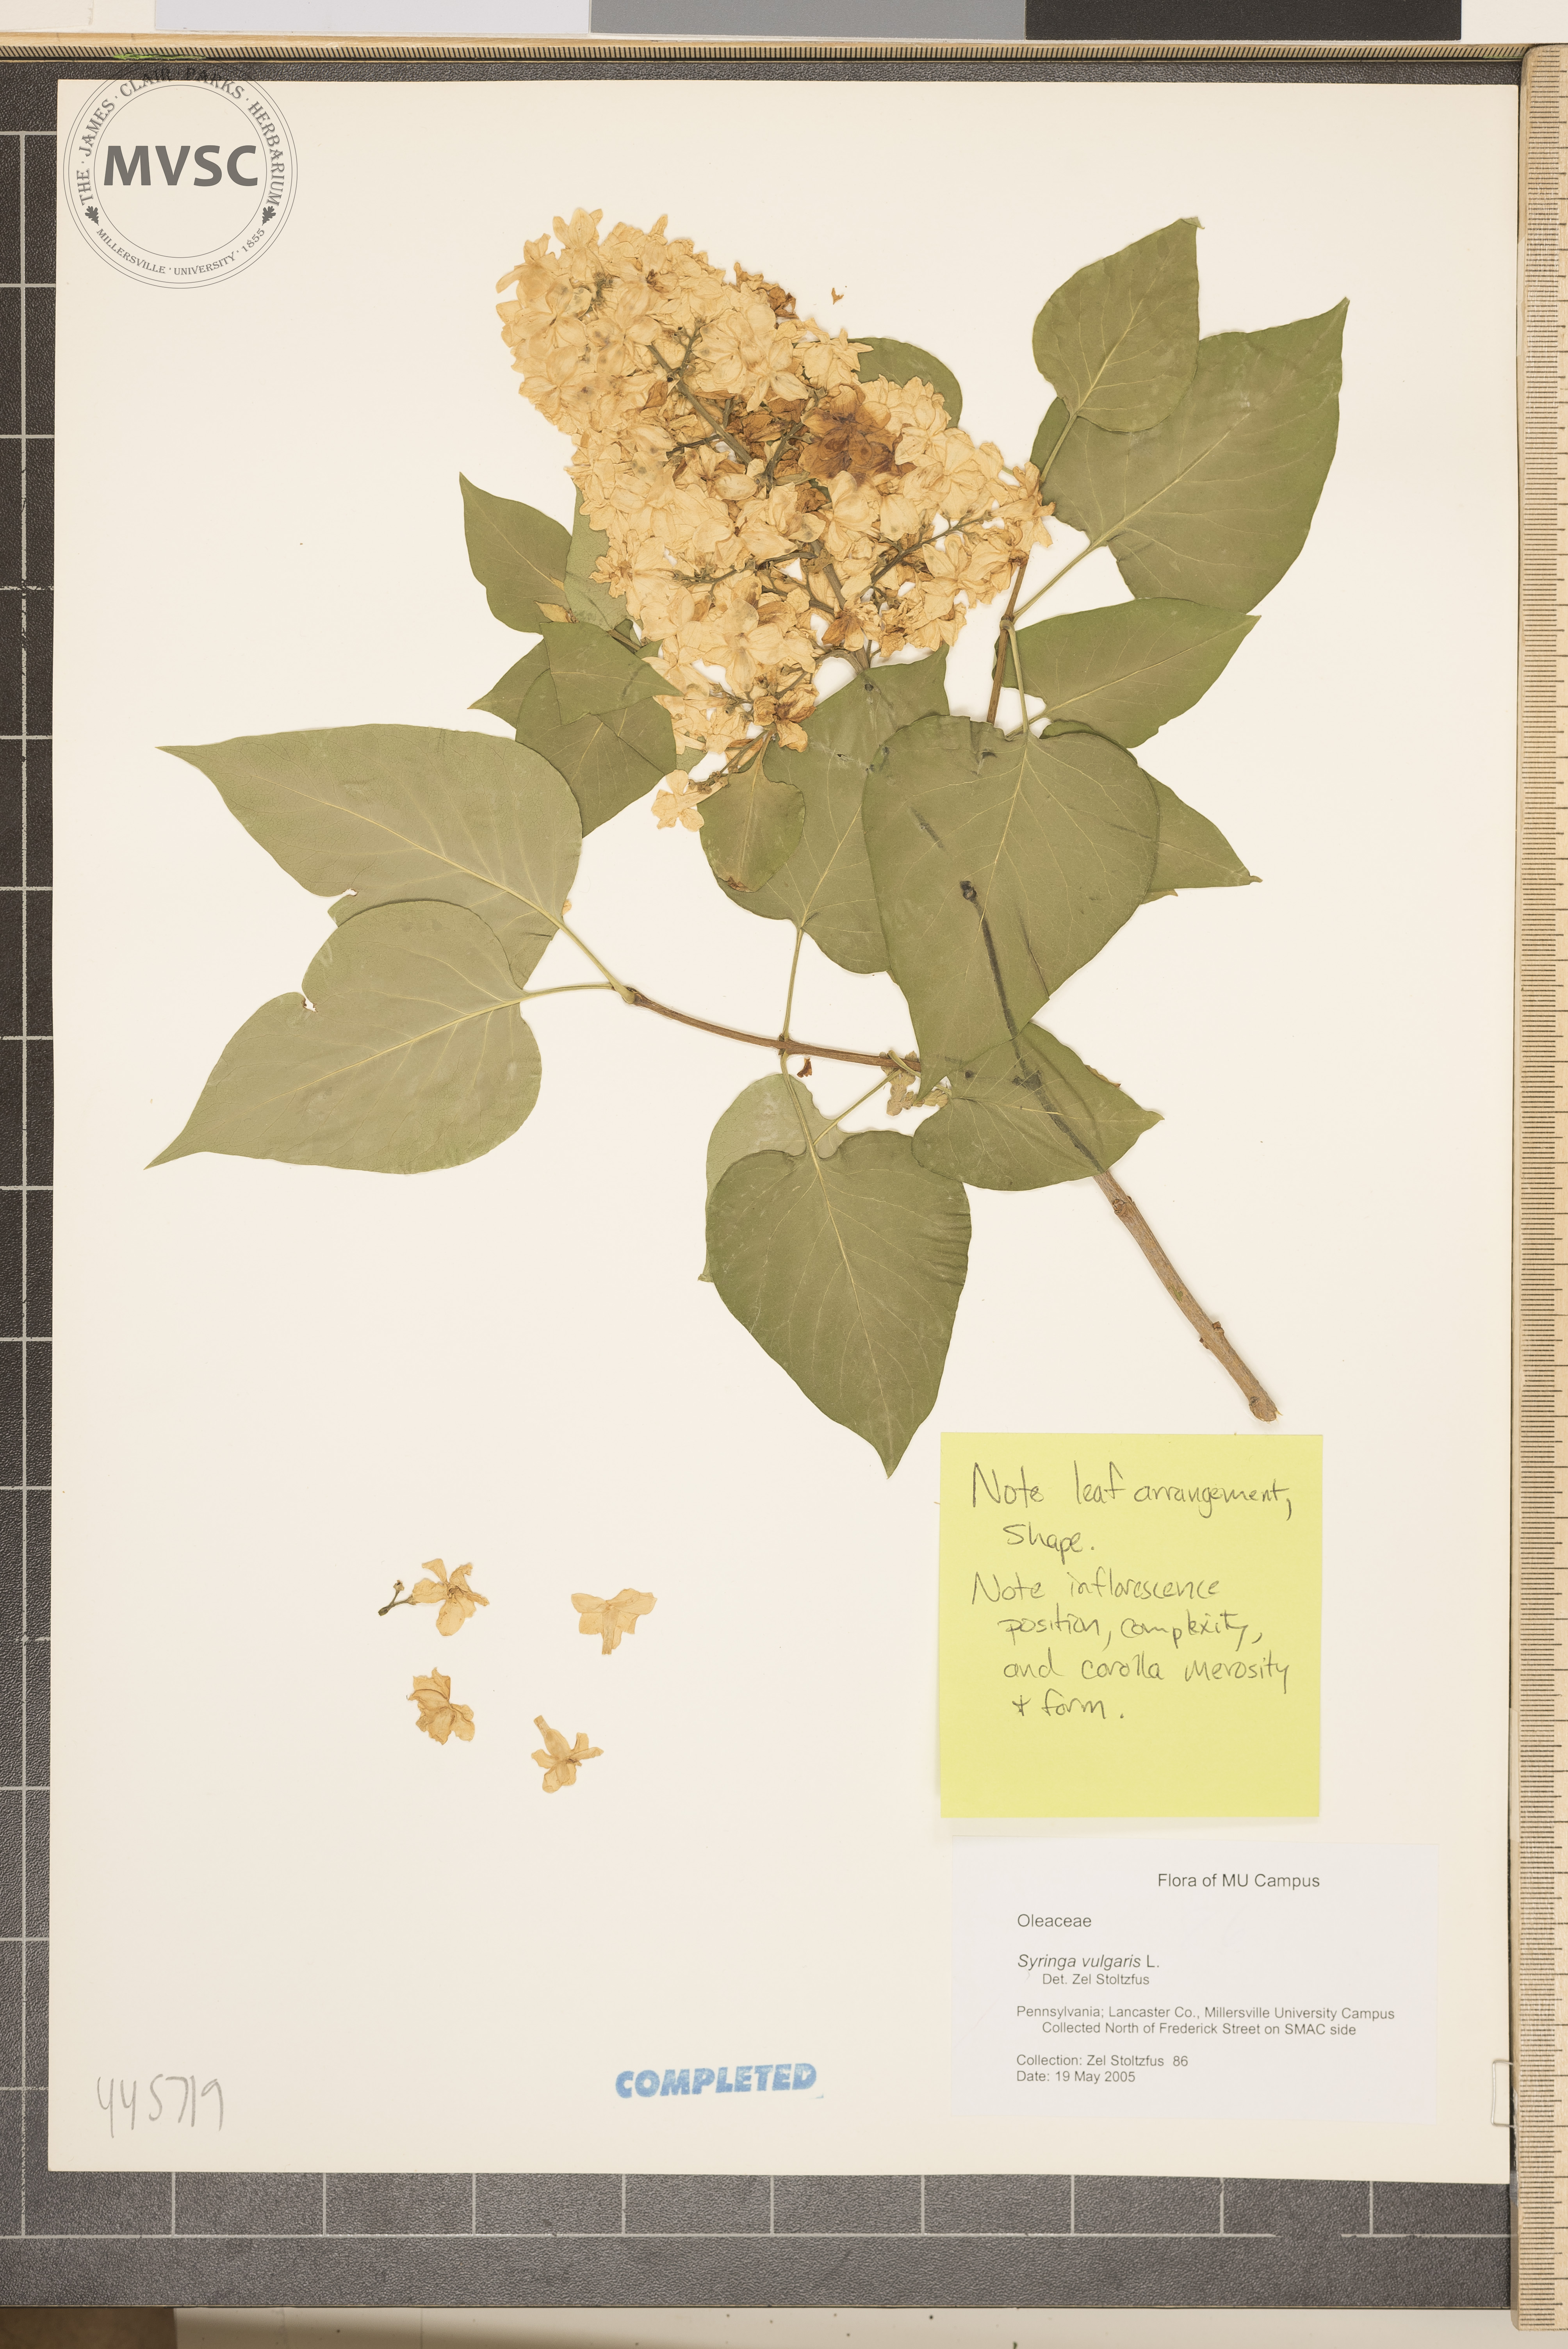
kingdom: Plantae
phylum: Tracheophyta
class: Magnoliopsida
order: Lamiales
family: Oleaceae
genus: Syringa
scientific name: Syringa vulgaris
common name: Common lilac
